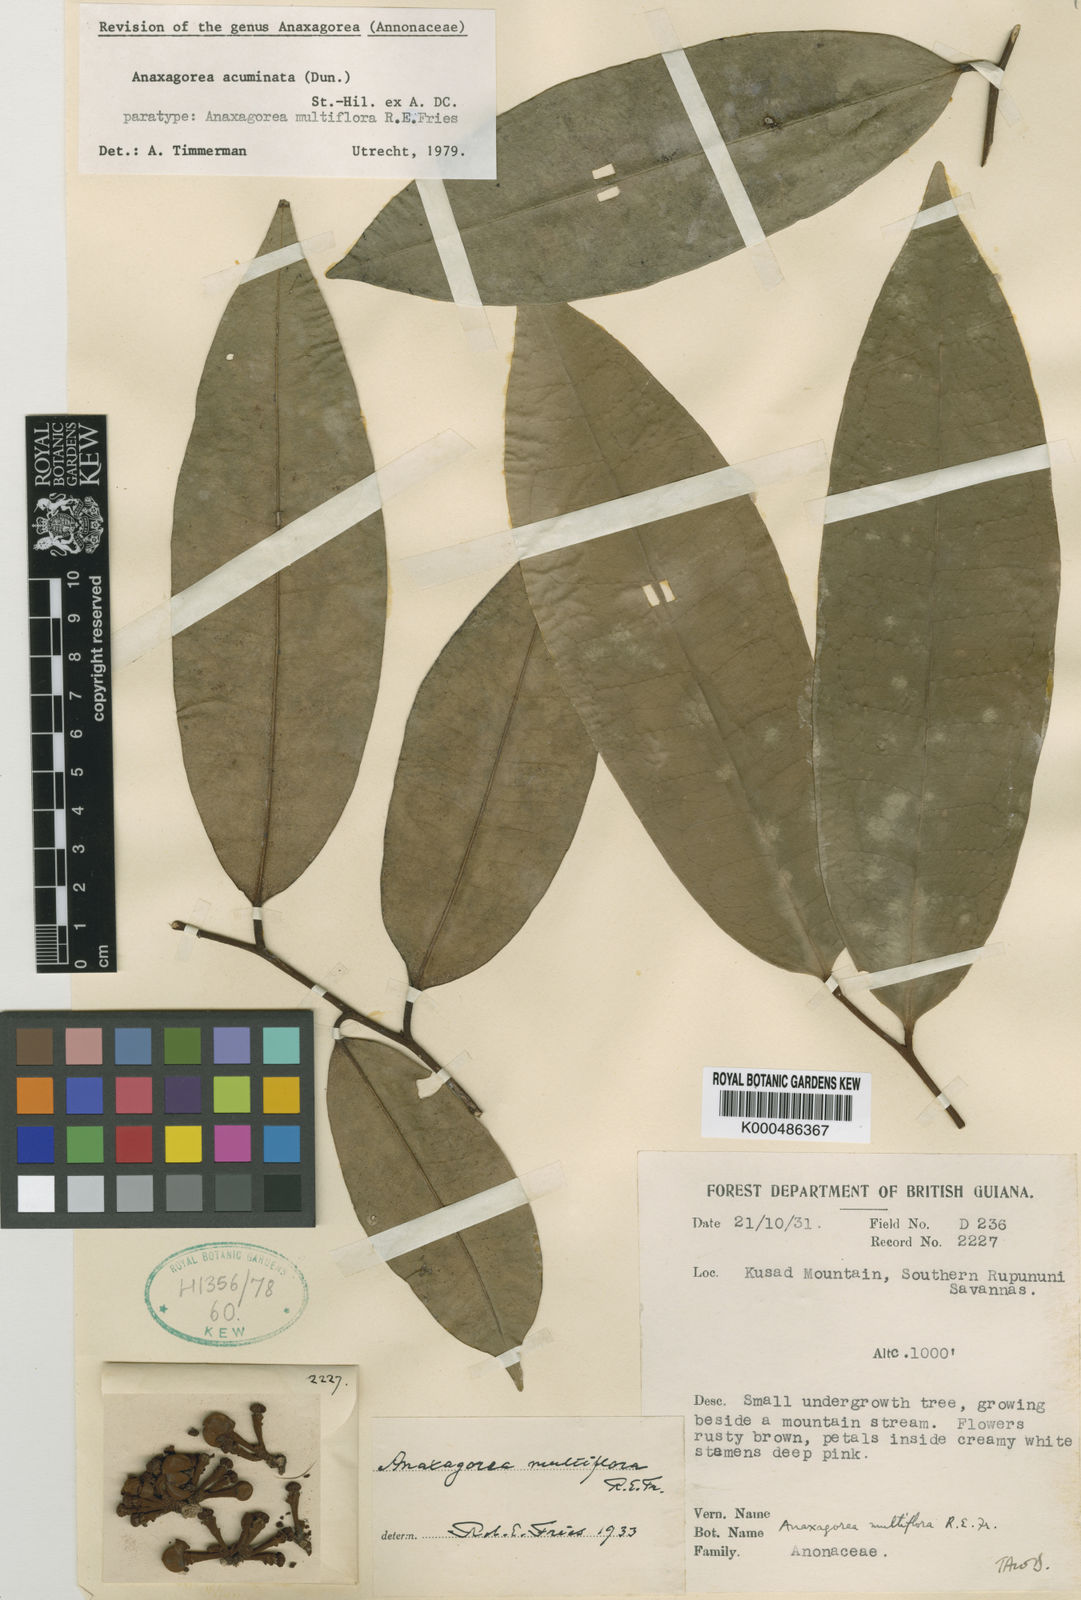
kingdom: Plantae
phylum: Tracheophyta
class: Magnoliopsida
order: Magnoliales
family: Annonaceae
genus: Anaxagorea
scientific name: Anaxagorea acuminata
